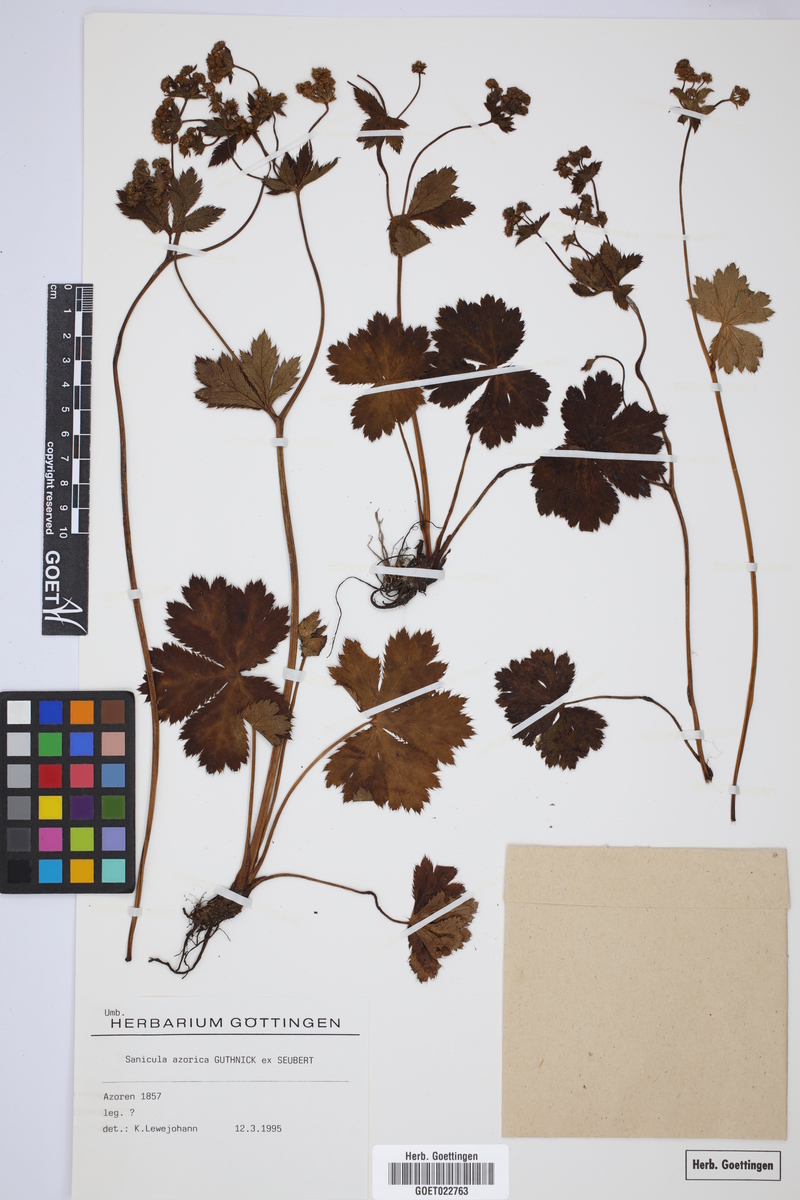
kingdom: Plantae
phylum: Tracheophyta
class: Magnoliopsida
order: Apiales
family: Apiaceae
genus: Sanicula
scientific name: Sanicula azorica
